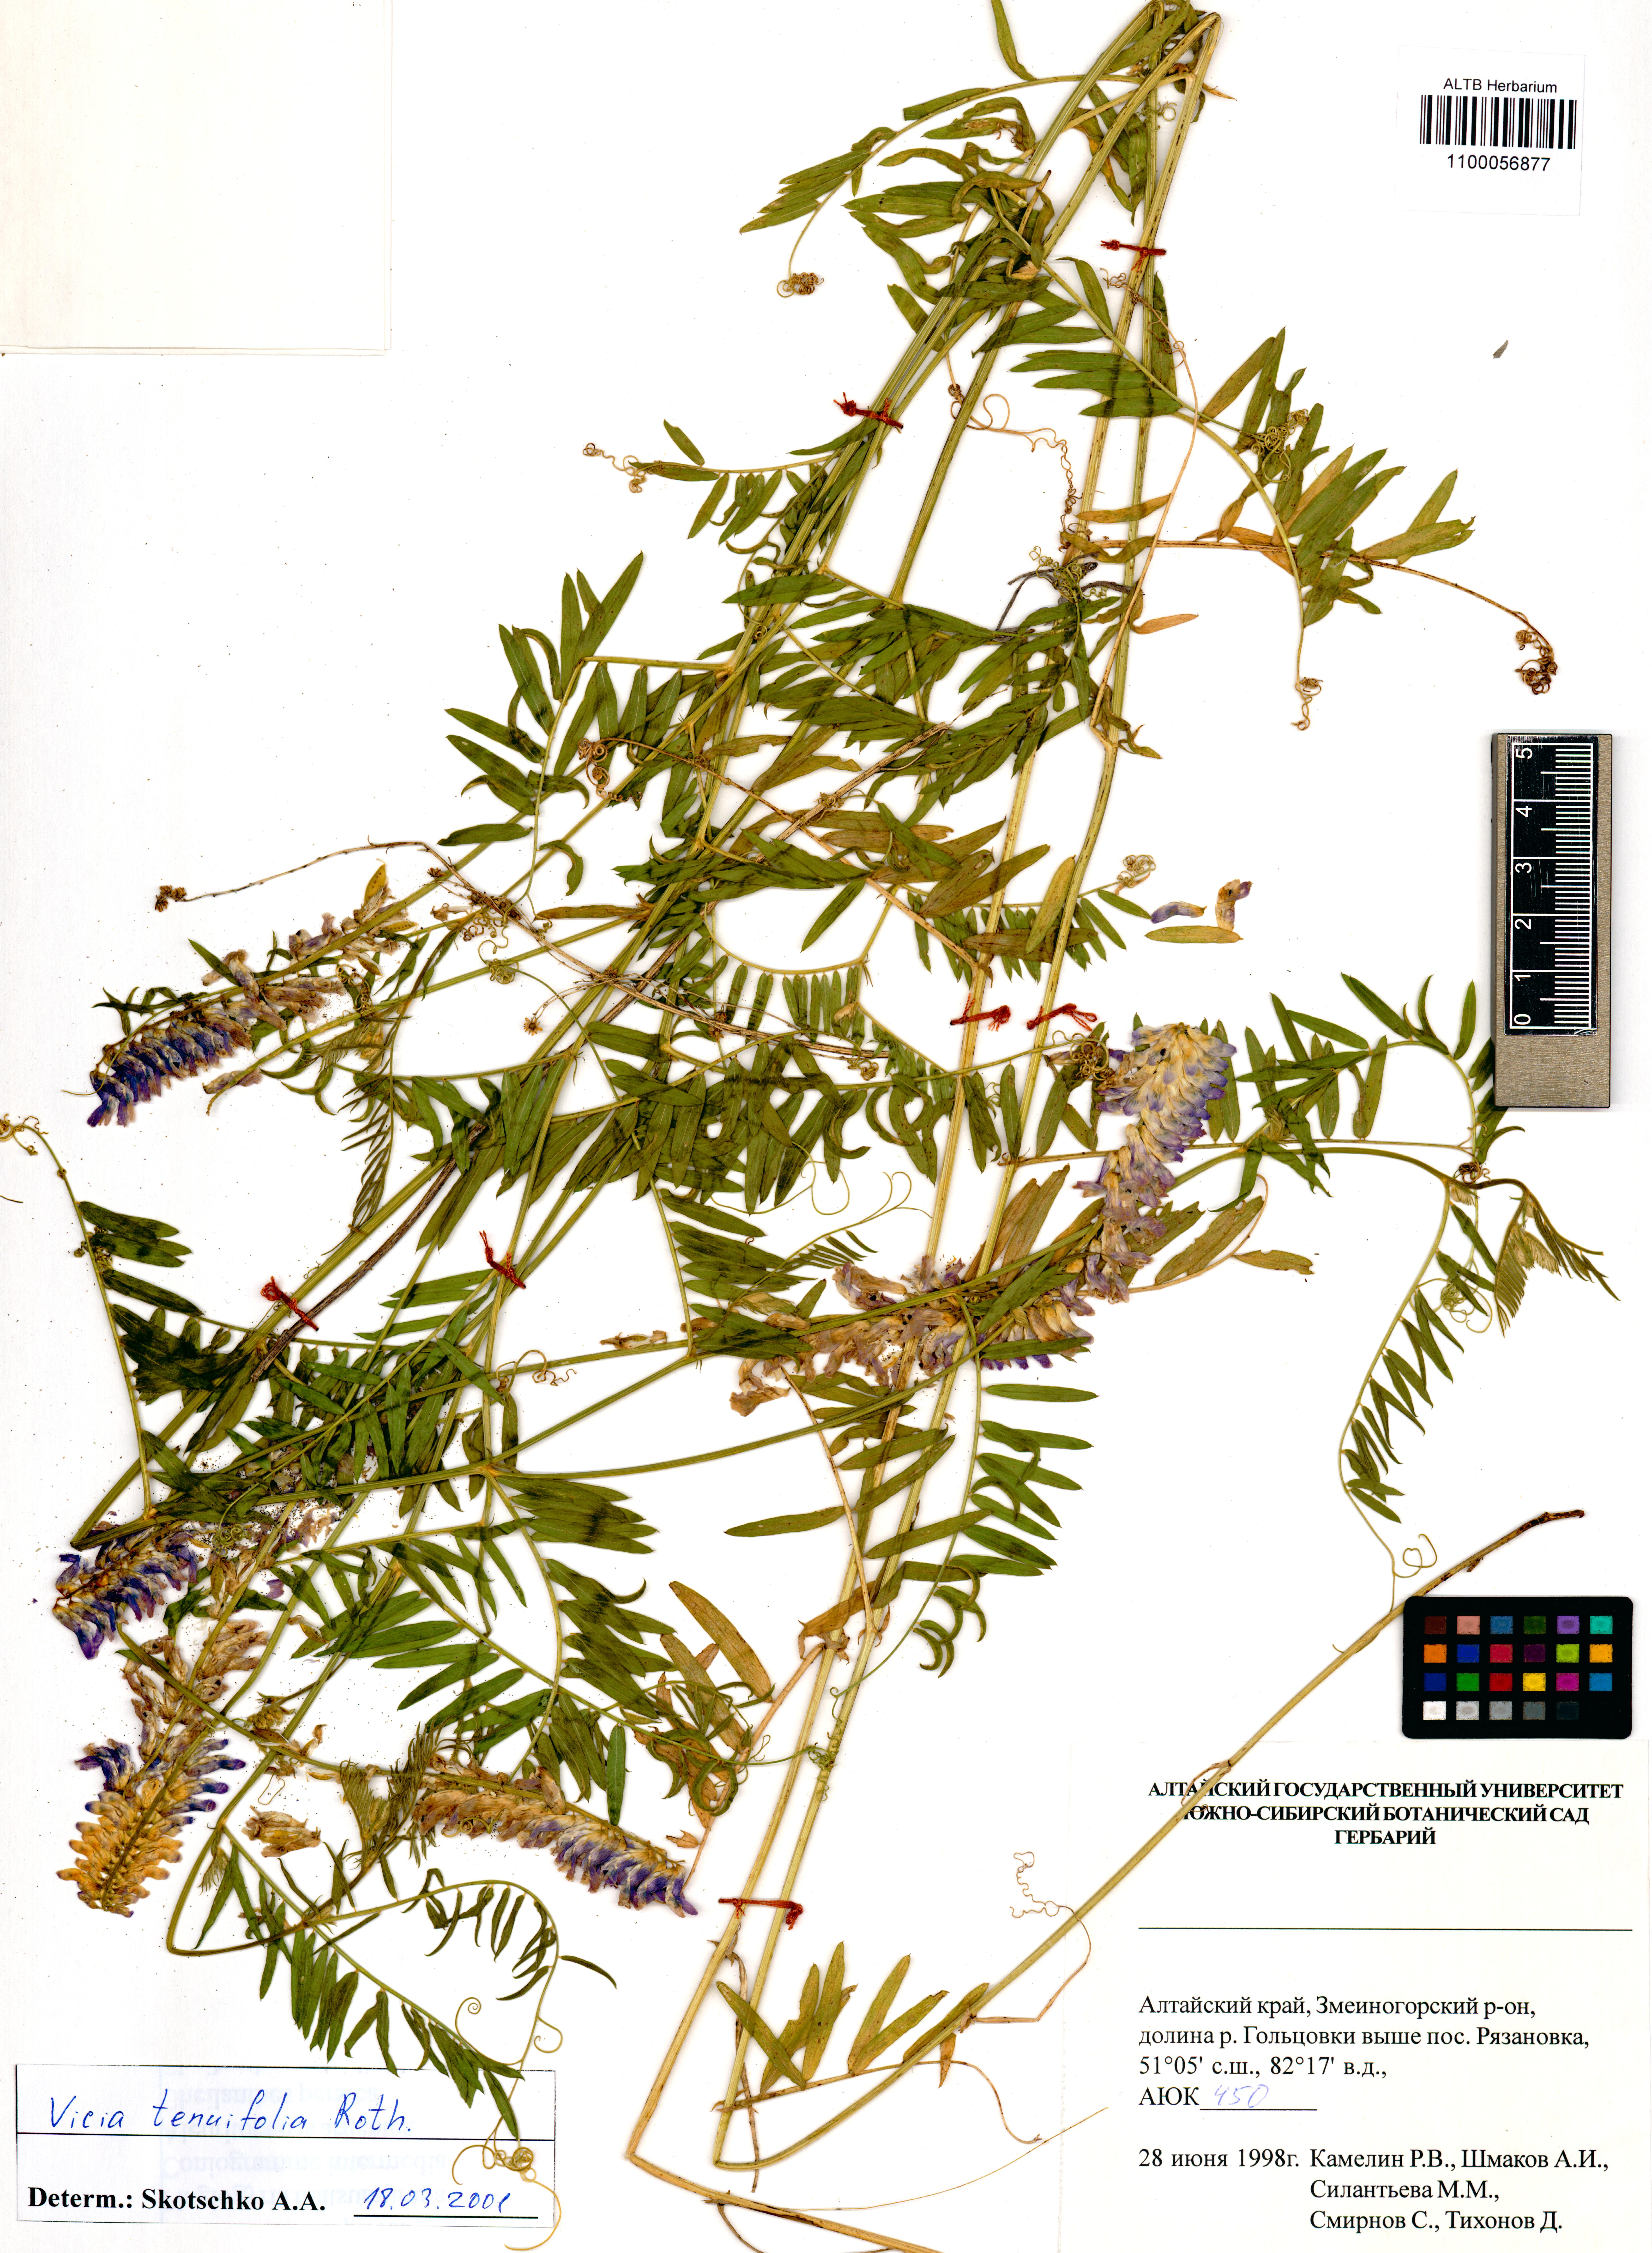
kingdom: Plantae
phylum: Tracheophyta
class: Magnoliopsida
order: Fabales
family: Fabaceae
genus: Vicia
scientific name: Vicia tenuifolia
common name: Fine-leaved vetch
